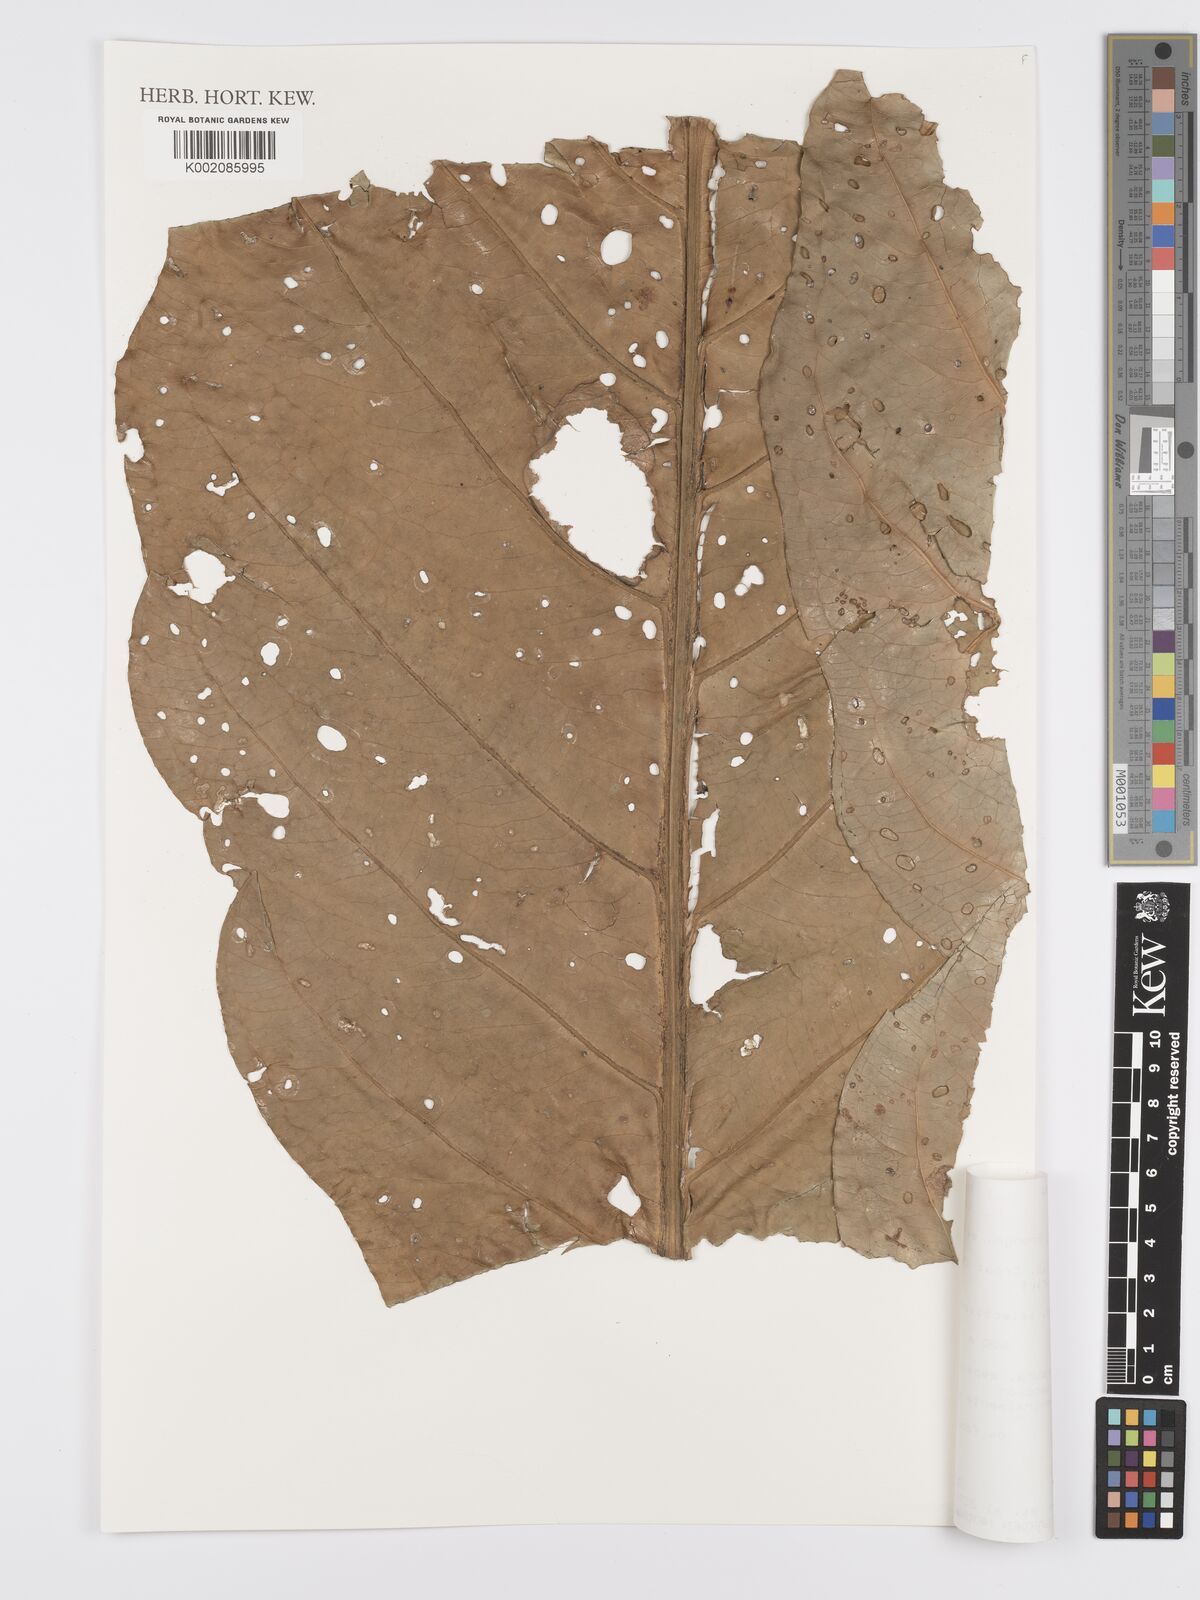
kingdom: Plantae
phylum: Tracheophyta
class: Liliopsida
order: Alismatales
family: Araceae
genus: Anthurium
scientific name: Anthurium dombeyanum
